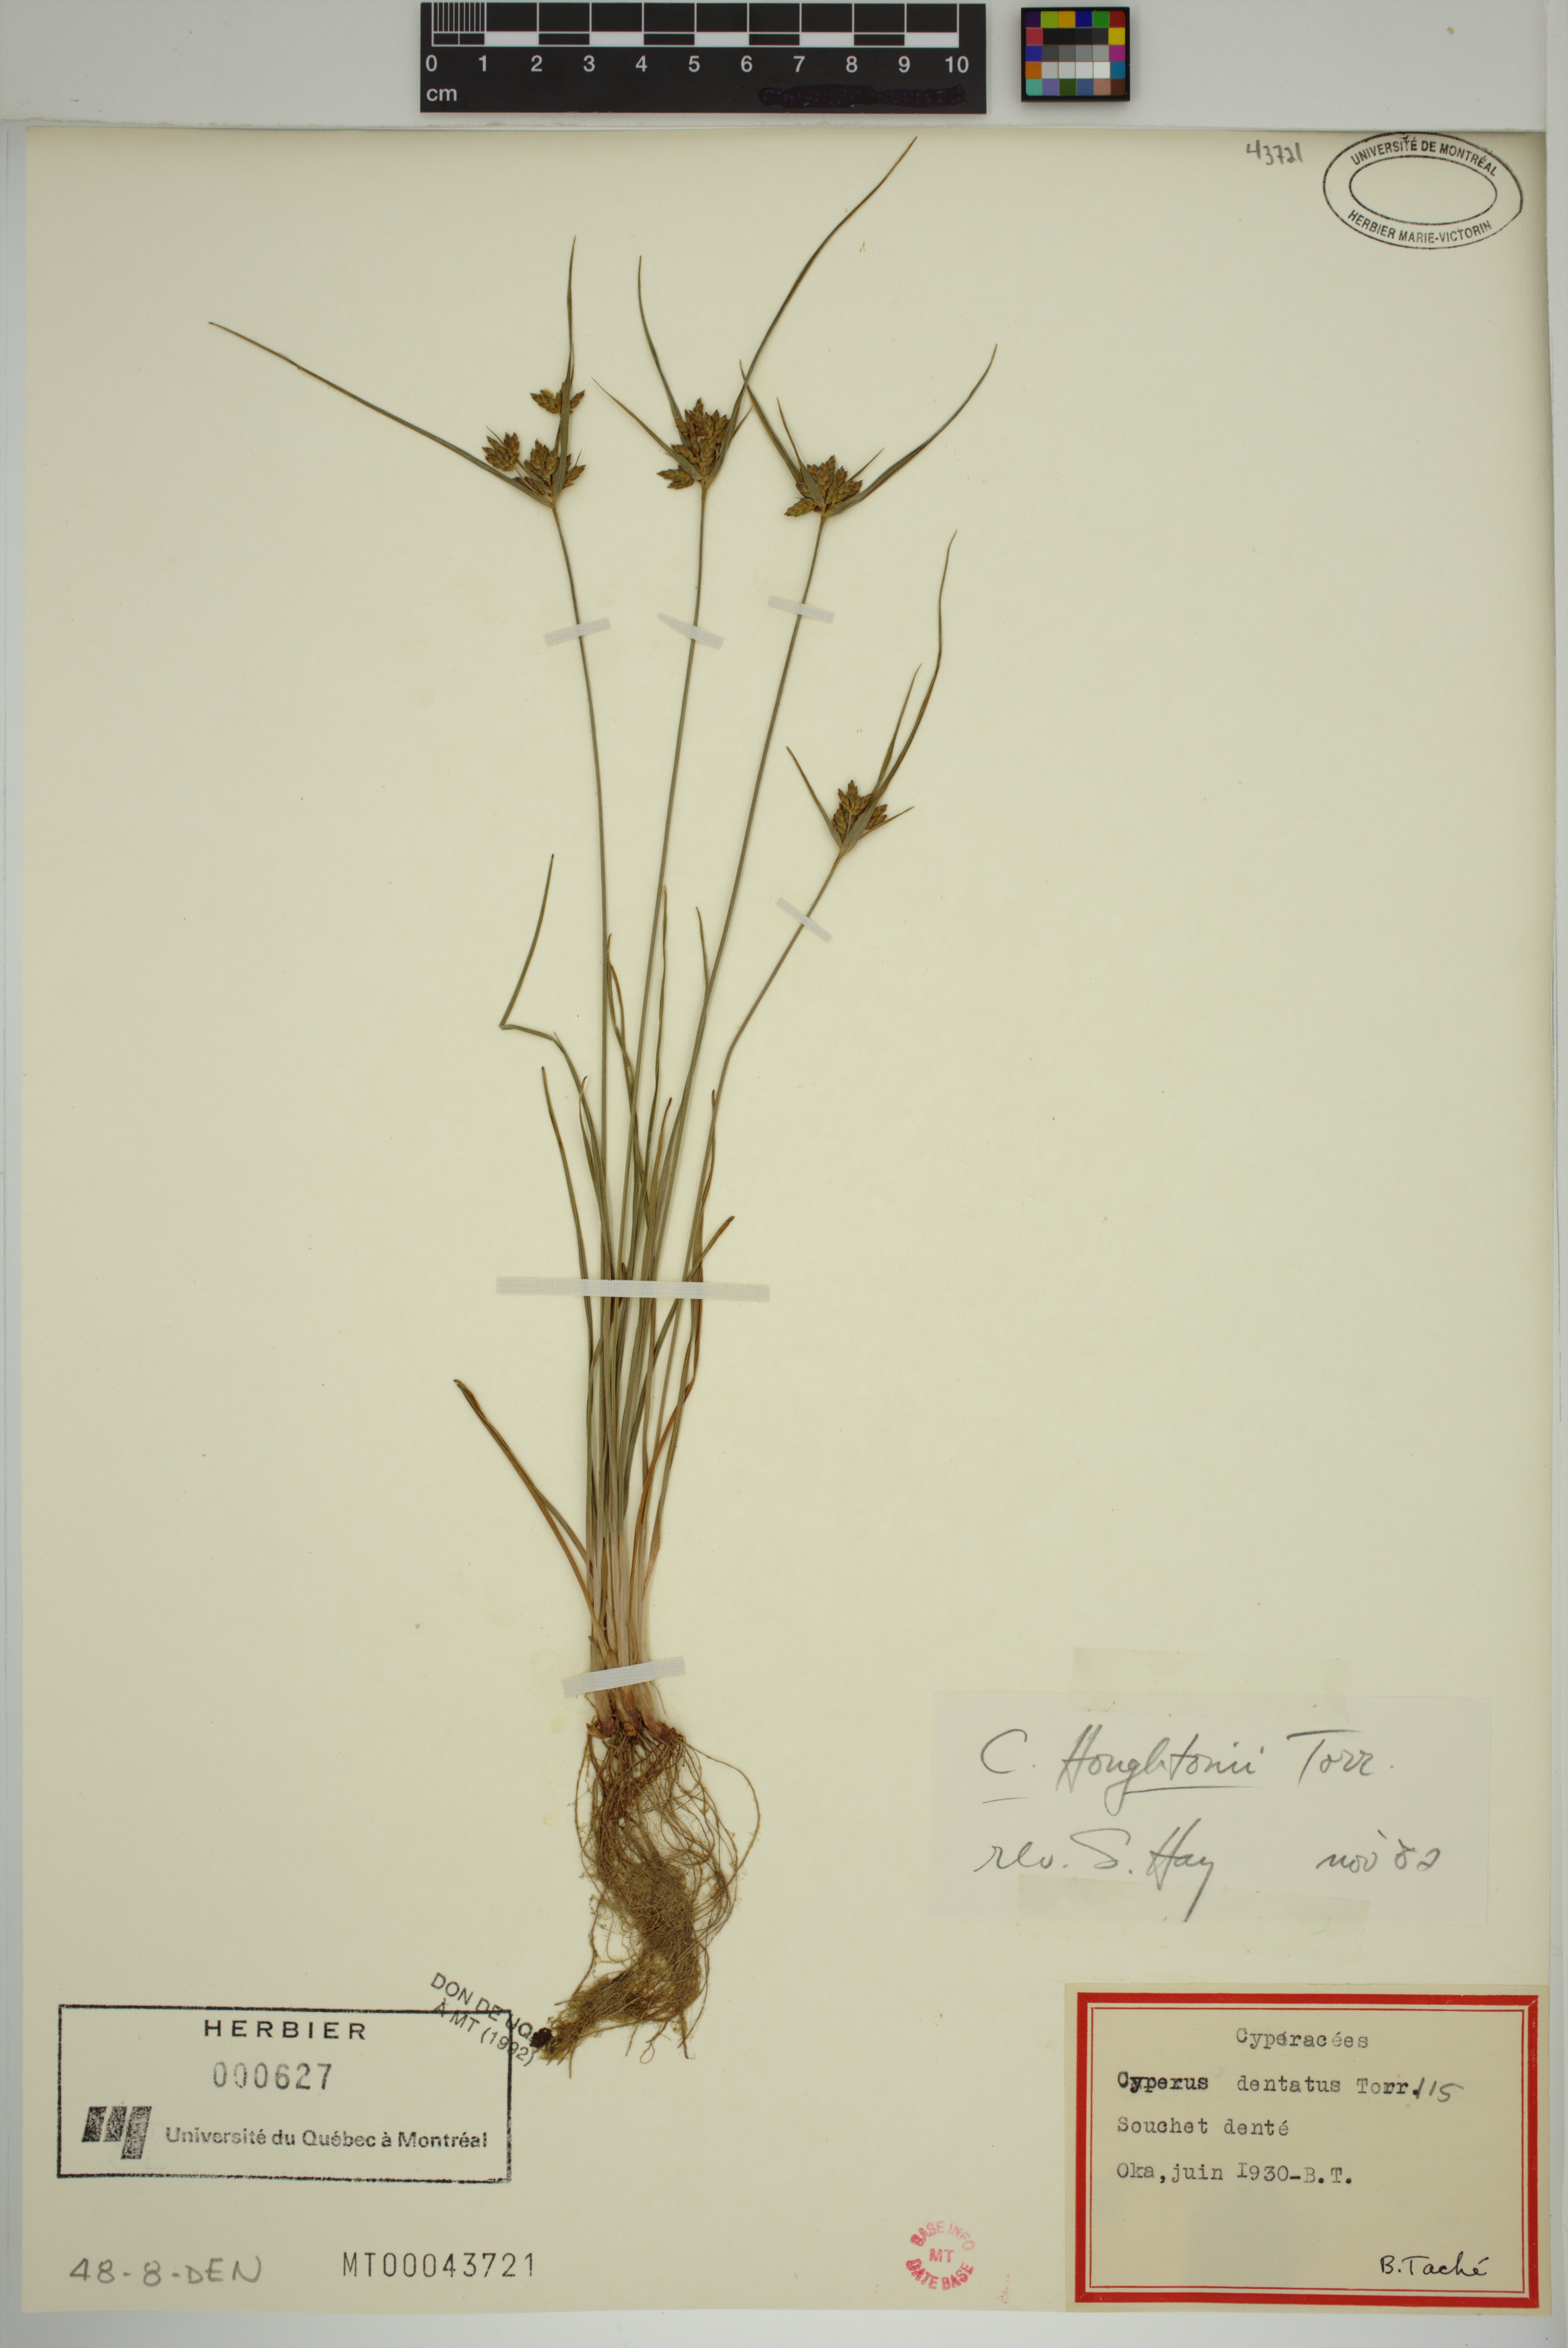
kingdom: Plantae
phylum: Tracheophyta
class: Liliopsida
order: Poales
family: Cyperaceae
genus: Cyperus
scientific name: Cyperus houghtonii
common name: Houghton's cyperus
